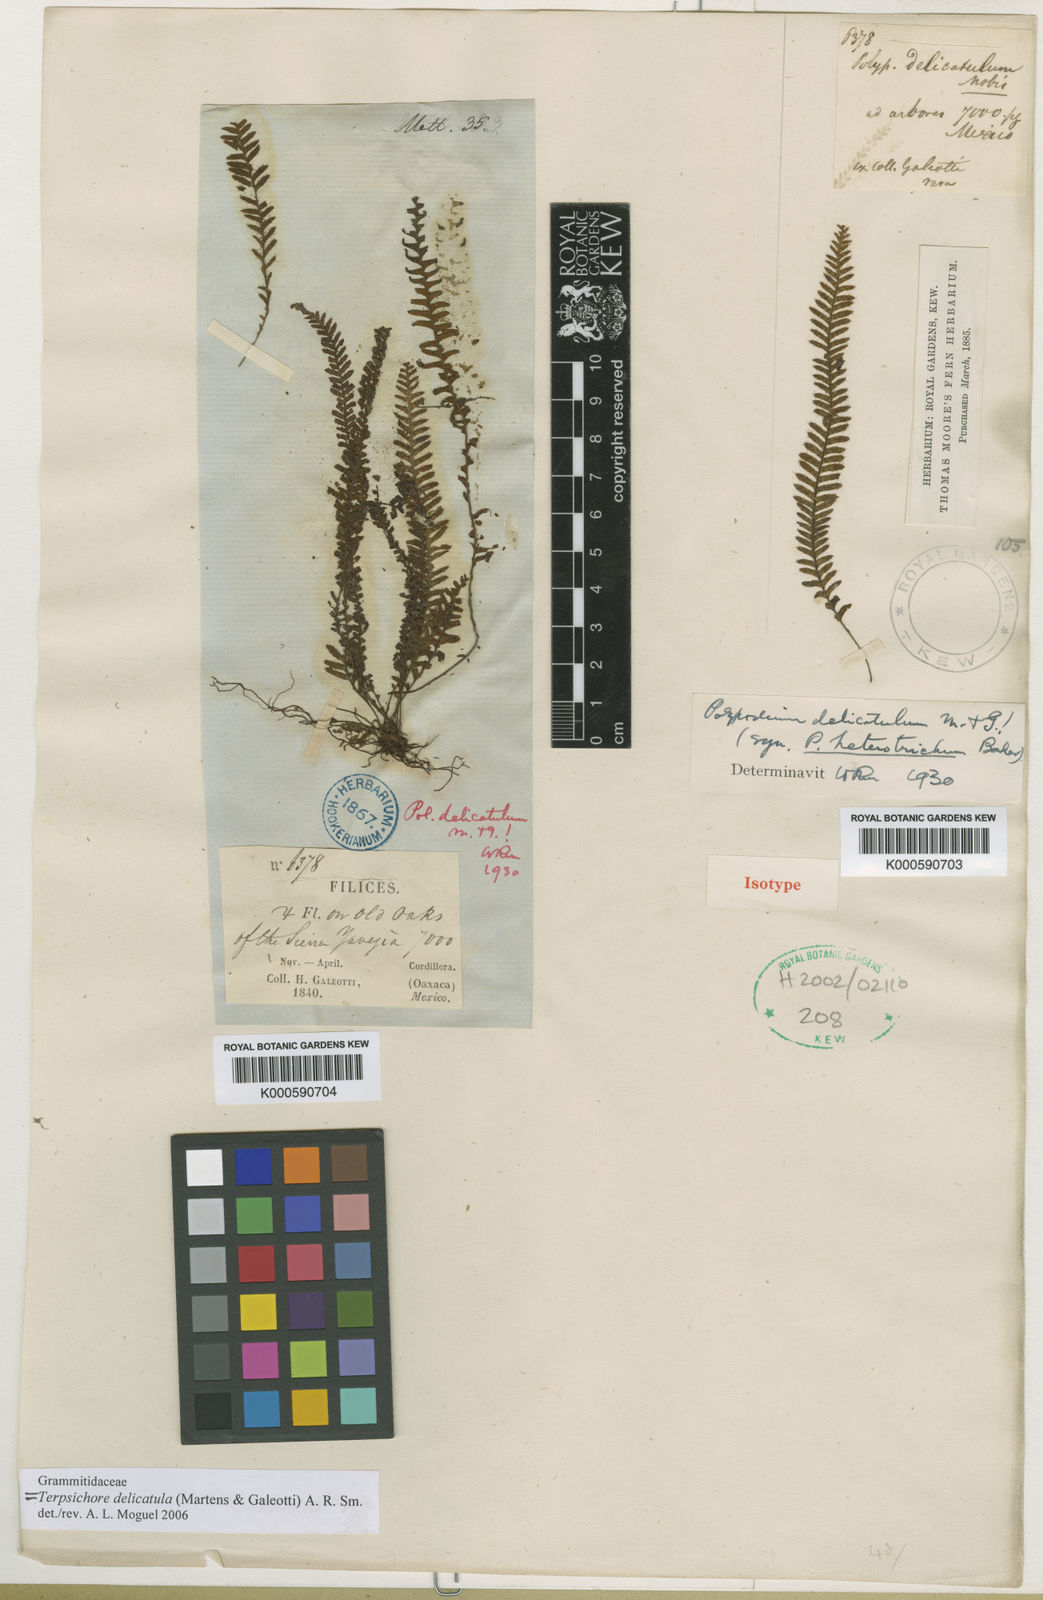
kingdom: Plantae
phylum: Tracheophyta
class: Polypodiopsida
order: Polypodiales
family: Polypodiaceae
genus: Galactodenia
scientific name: Galactodenia delicatula
